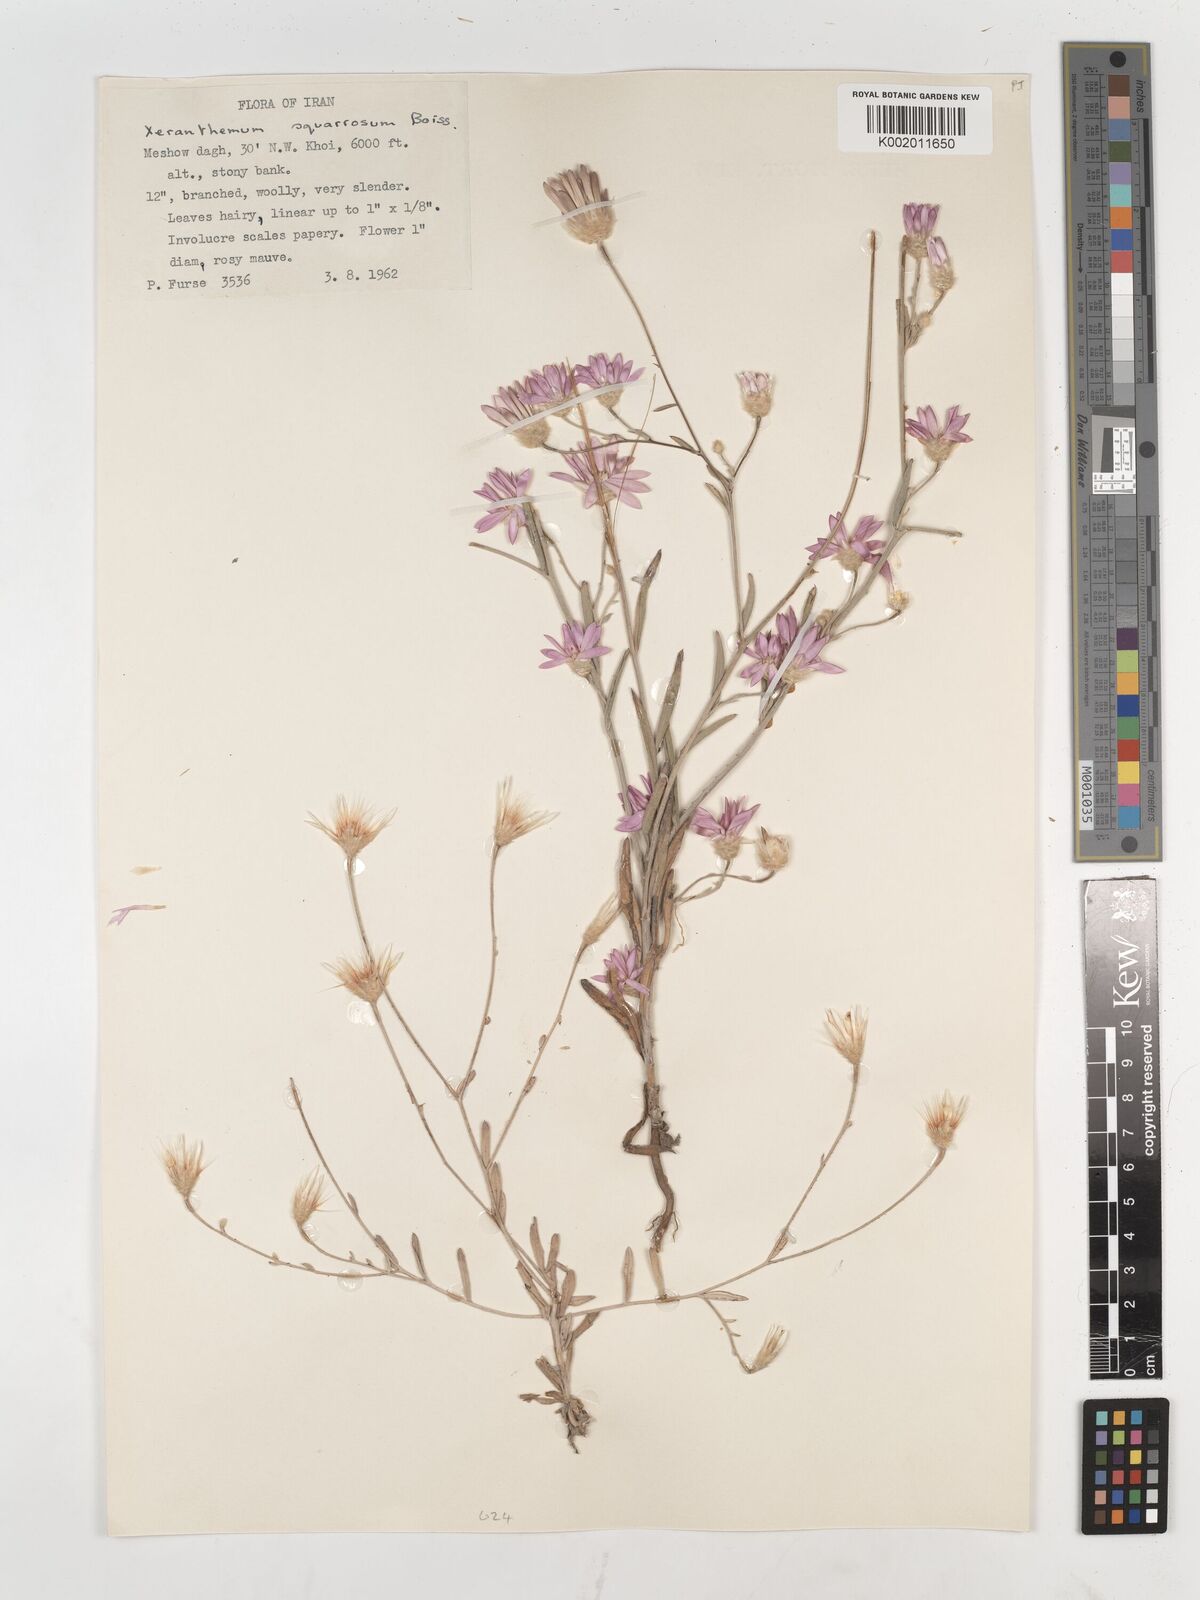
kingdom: Plantae
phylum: Tracheophyta
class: Magnoliopsida
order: Asterales
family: Asteraceae
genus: Xeranthemum
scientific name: Xeranthemum squarrosum
